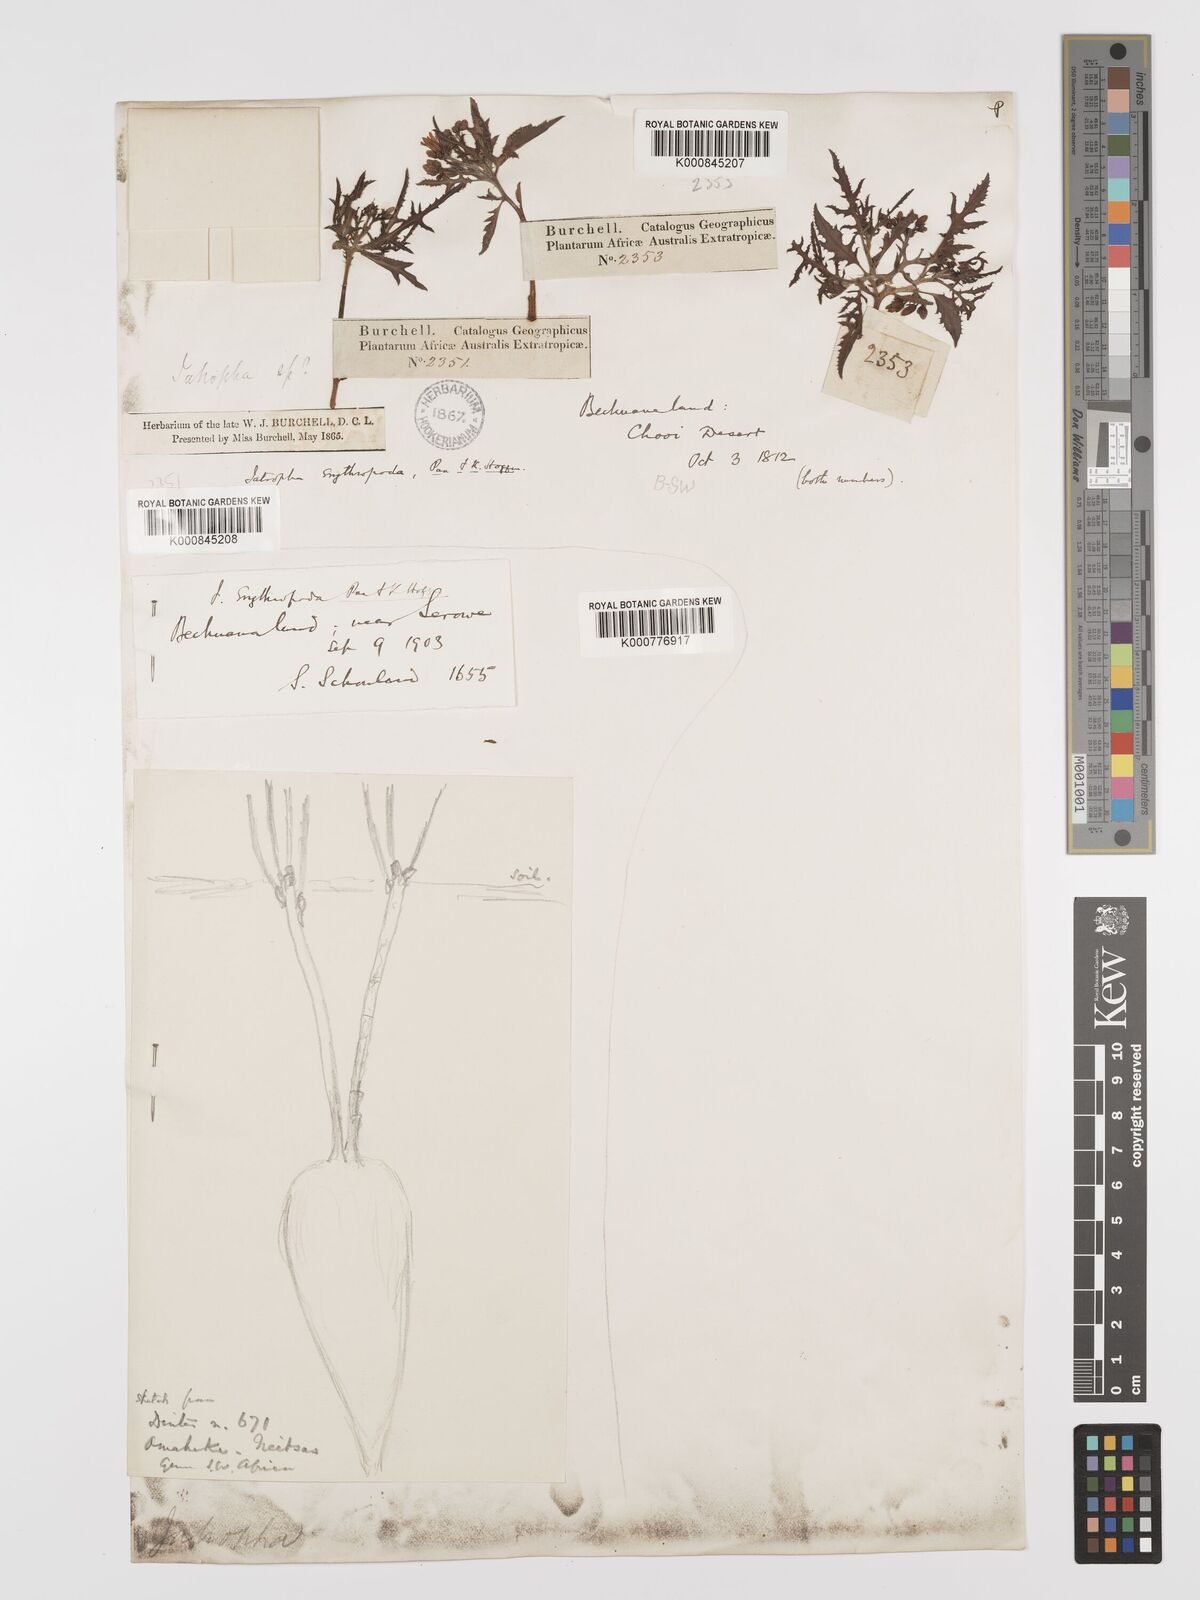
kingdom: Plantae
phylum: Tracheophyta
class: Magnoliopsida
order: Malpighiales
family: Euphorbiaceae
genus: Jatropha
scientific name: Jatropha erythropoda
